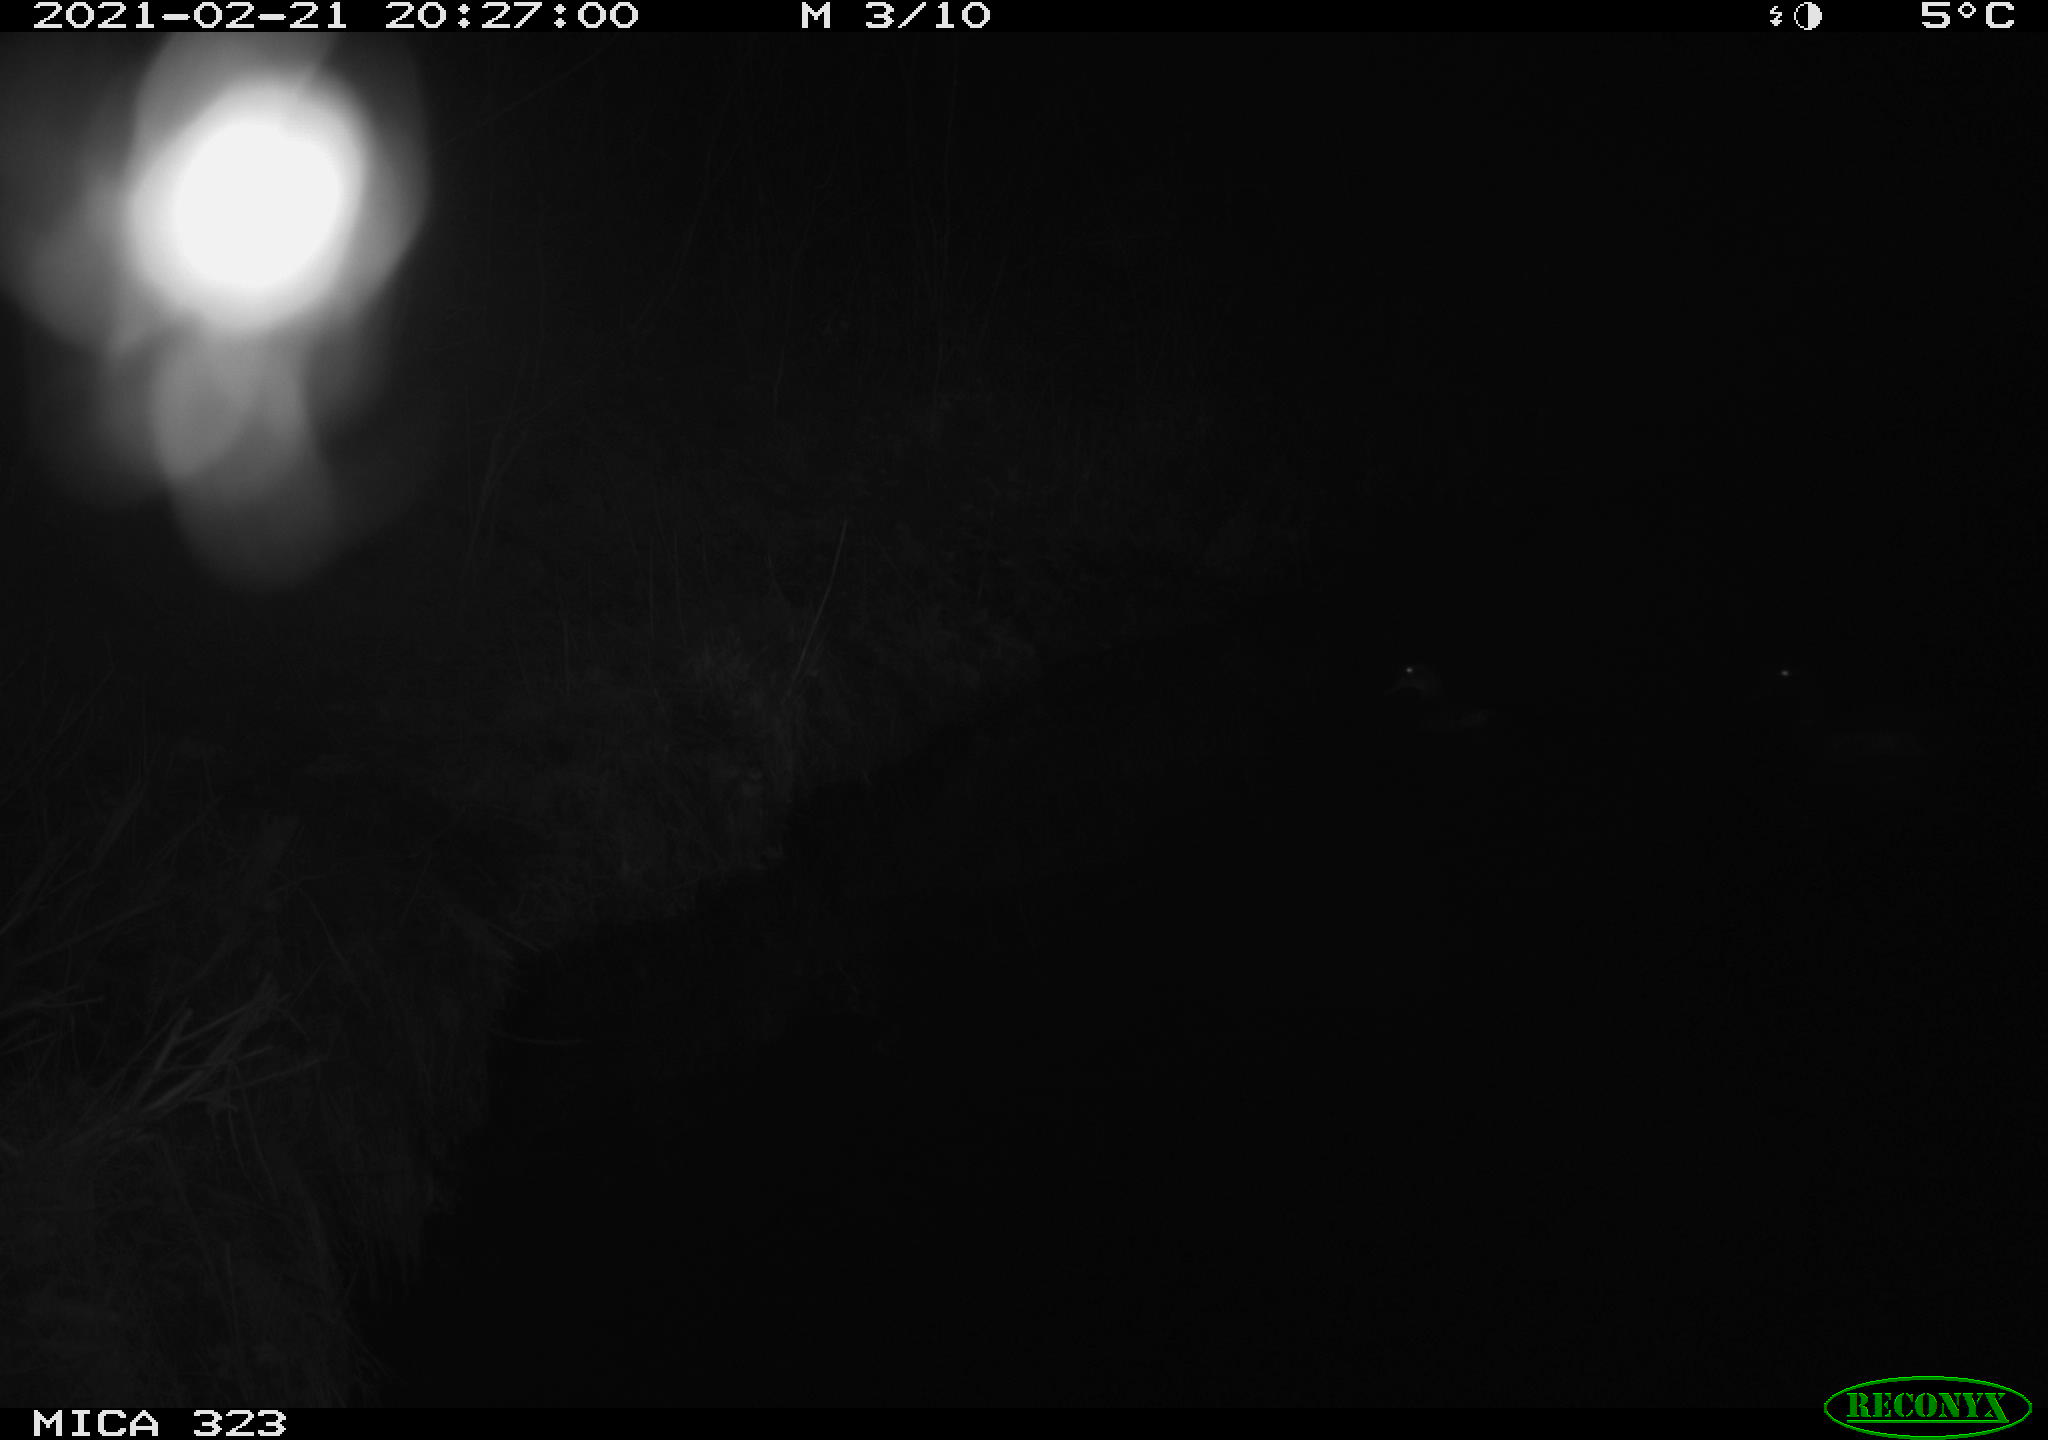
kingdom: Animalia
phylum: Chordata
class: Aves
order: Anseriformes
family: Anatidae
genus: Anas
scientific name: Anas platyrhynchos
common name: Mallard
